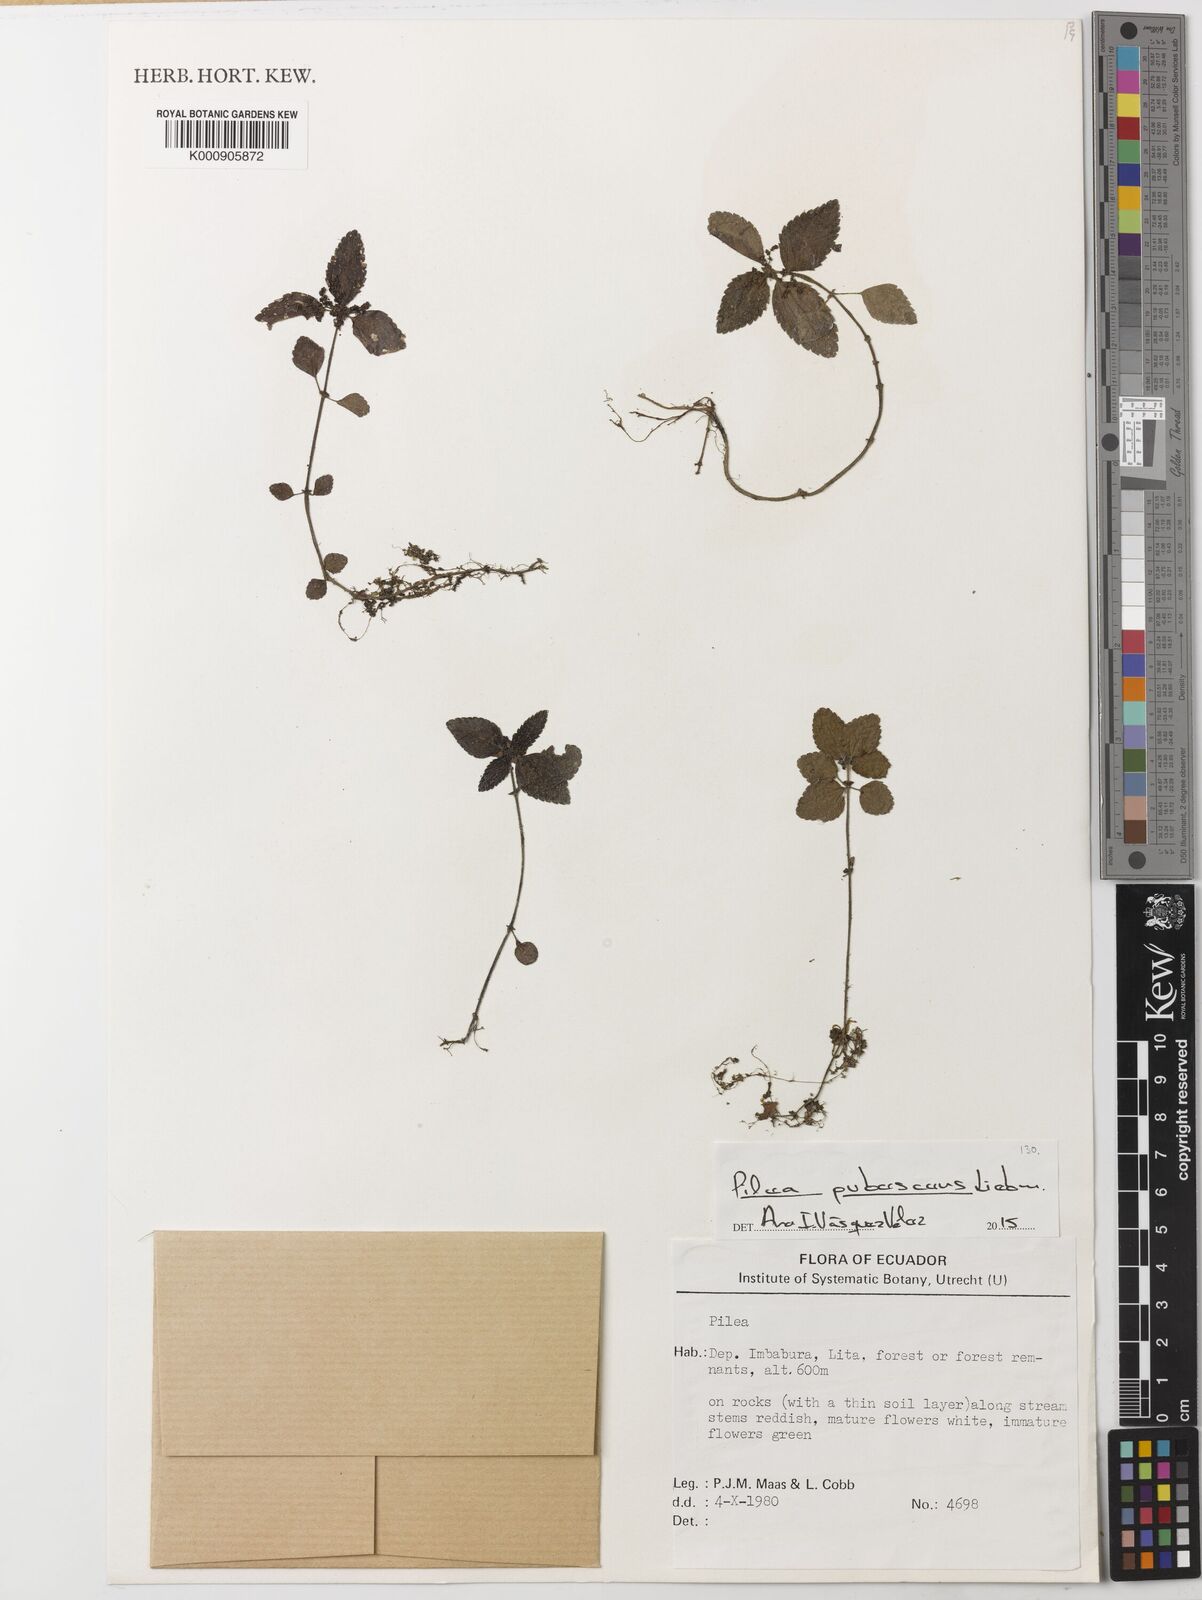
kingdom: Plantae
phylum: Tracheophyta
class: Magnoliopsida
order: Rosales
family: Urticaceae
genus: Pilea
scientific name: Pilea pubescens
